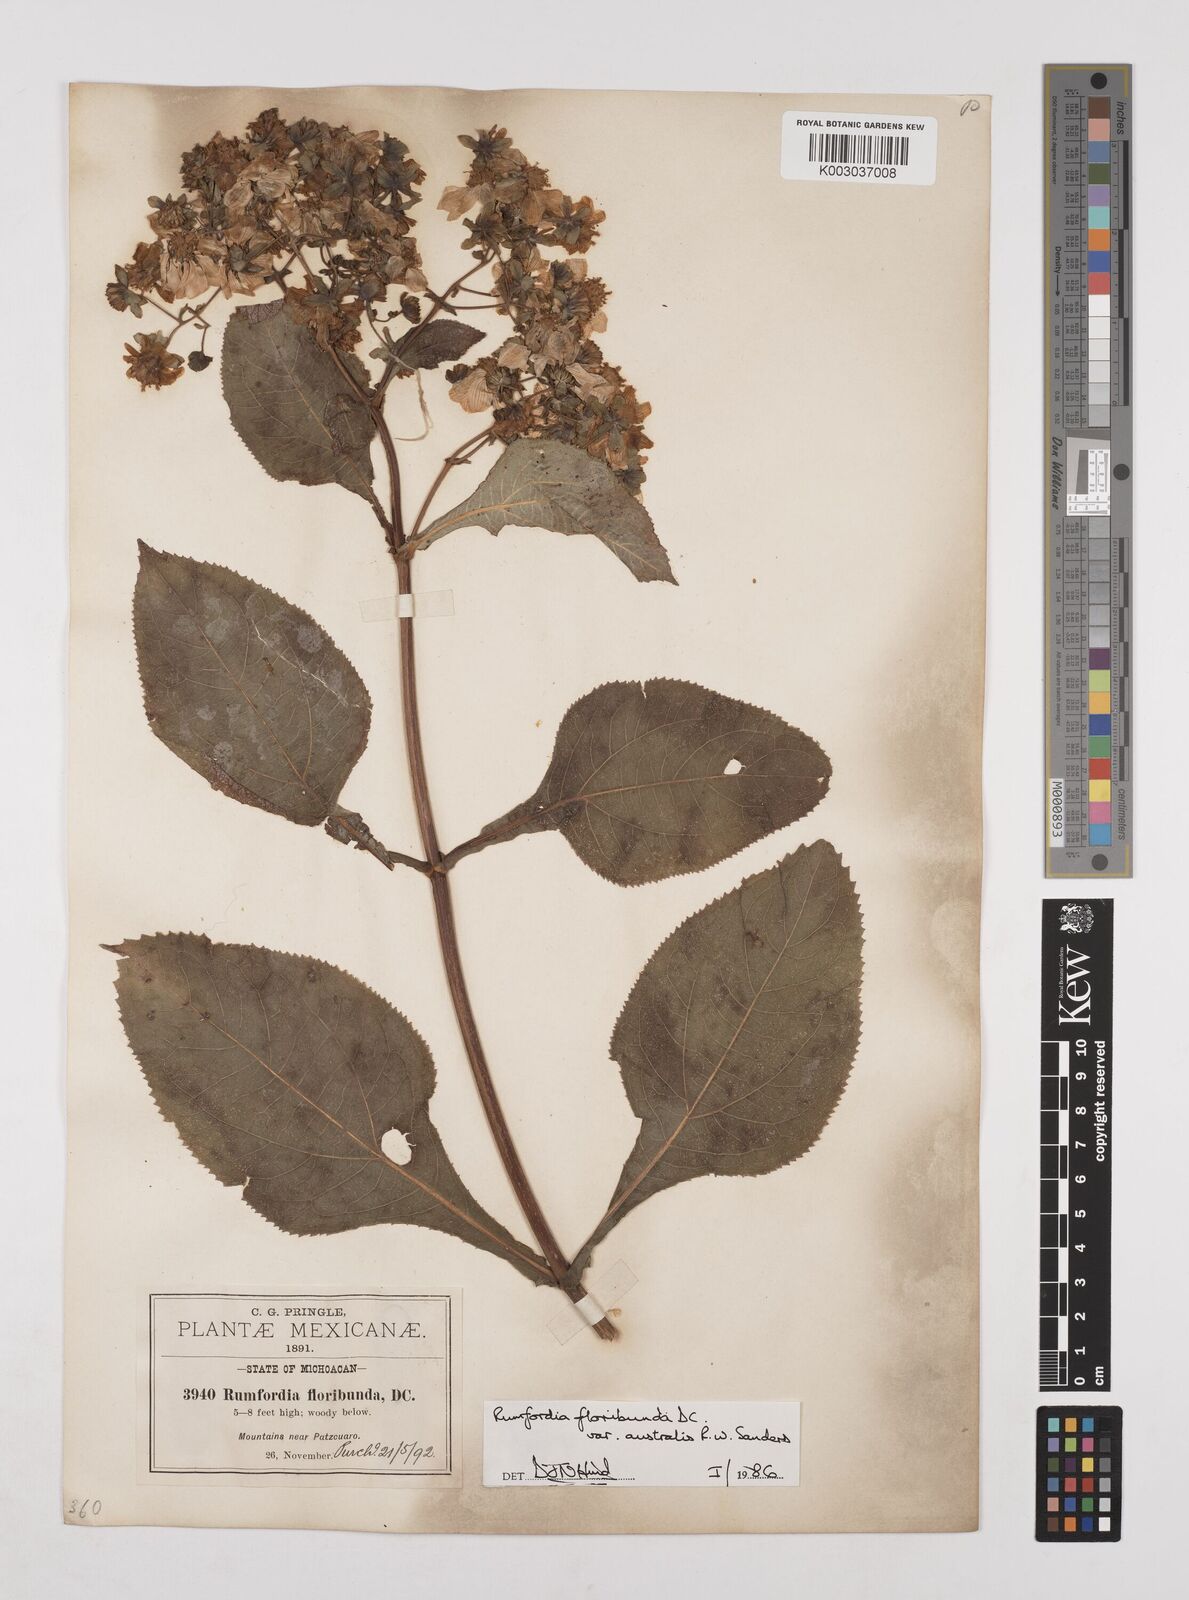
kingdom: Plantae
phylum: Tracheophyta
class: Magnoliopsida
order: Asterales
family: Asteraceae
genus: Rumfordia
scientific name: Rumfordia floribunda
